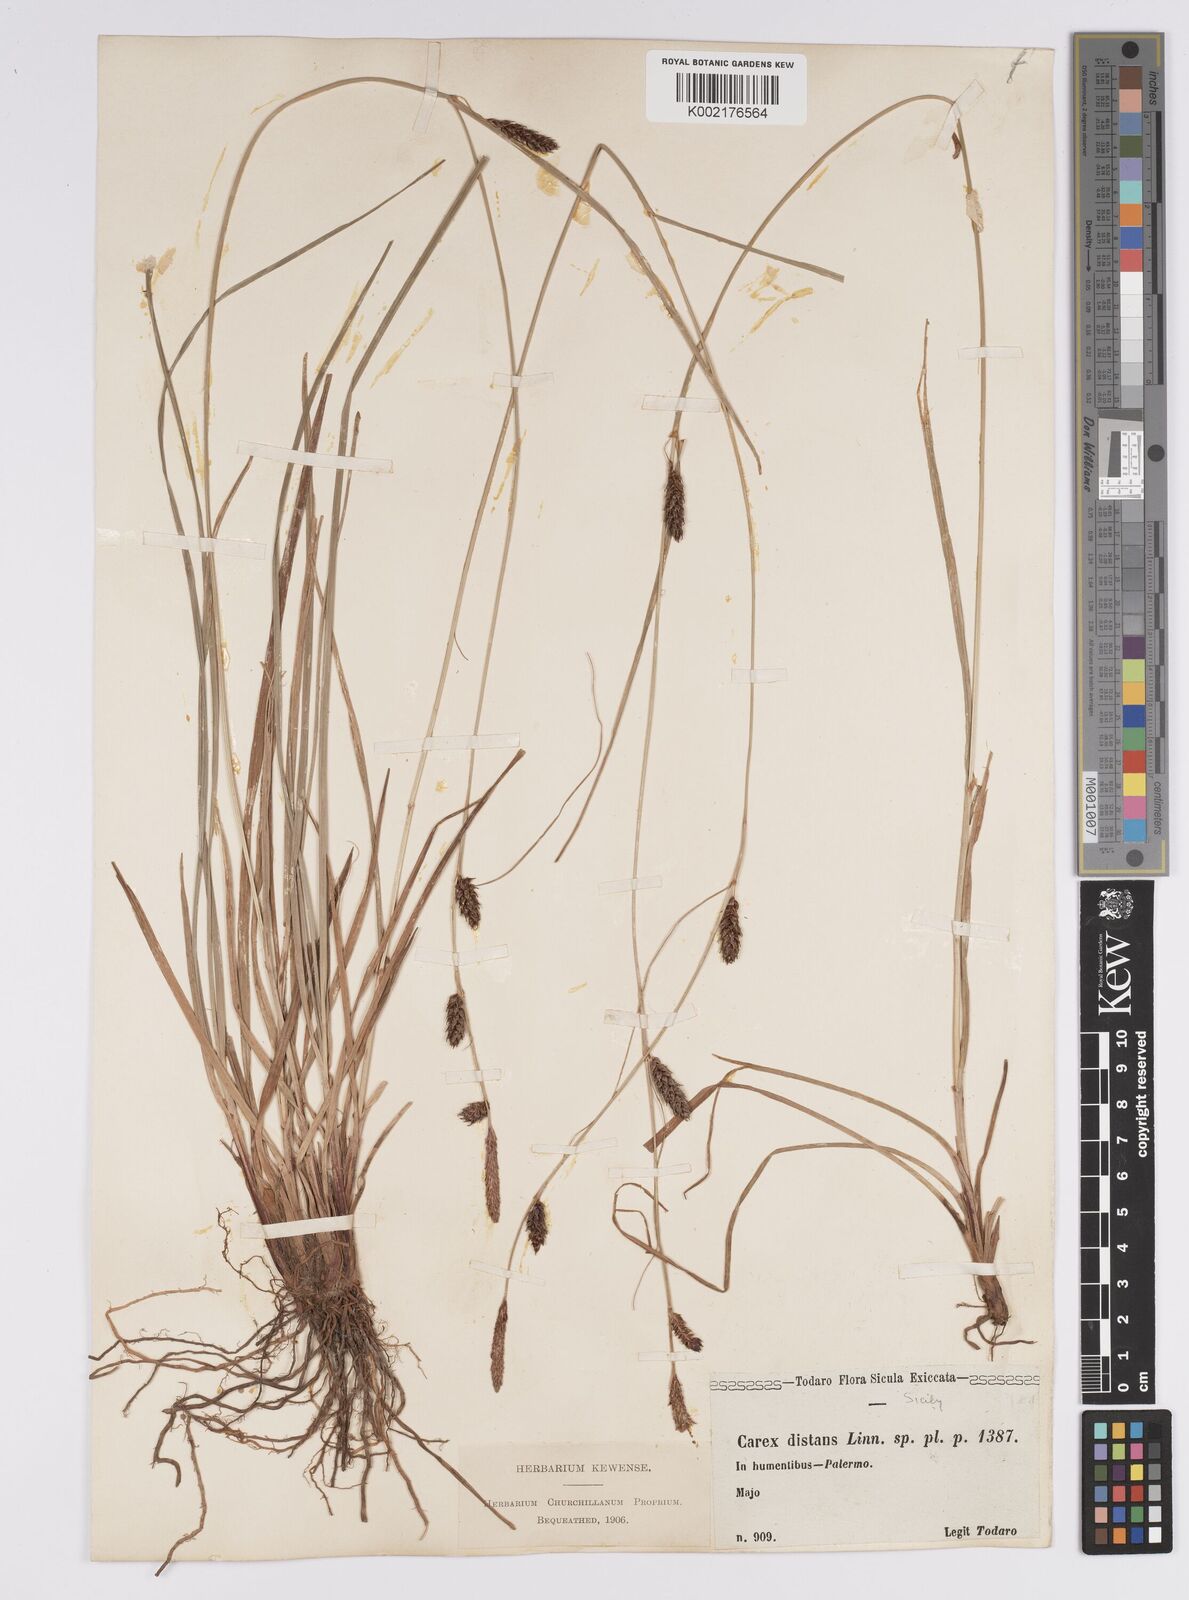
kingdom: Plantae
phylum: Tracheophyta
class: Liliopsida
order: Poales
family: Cyperaceae
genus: Carex
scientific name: Carex distans
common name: Distant sedge
